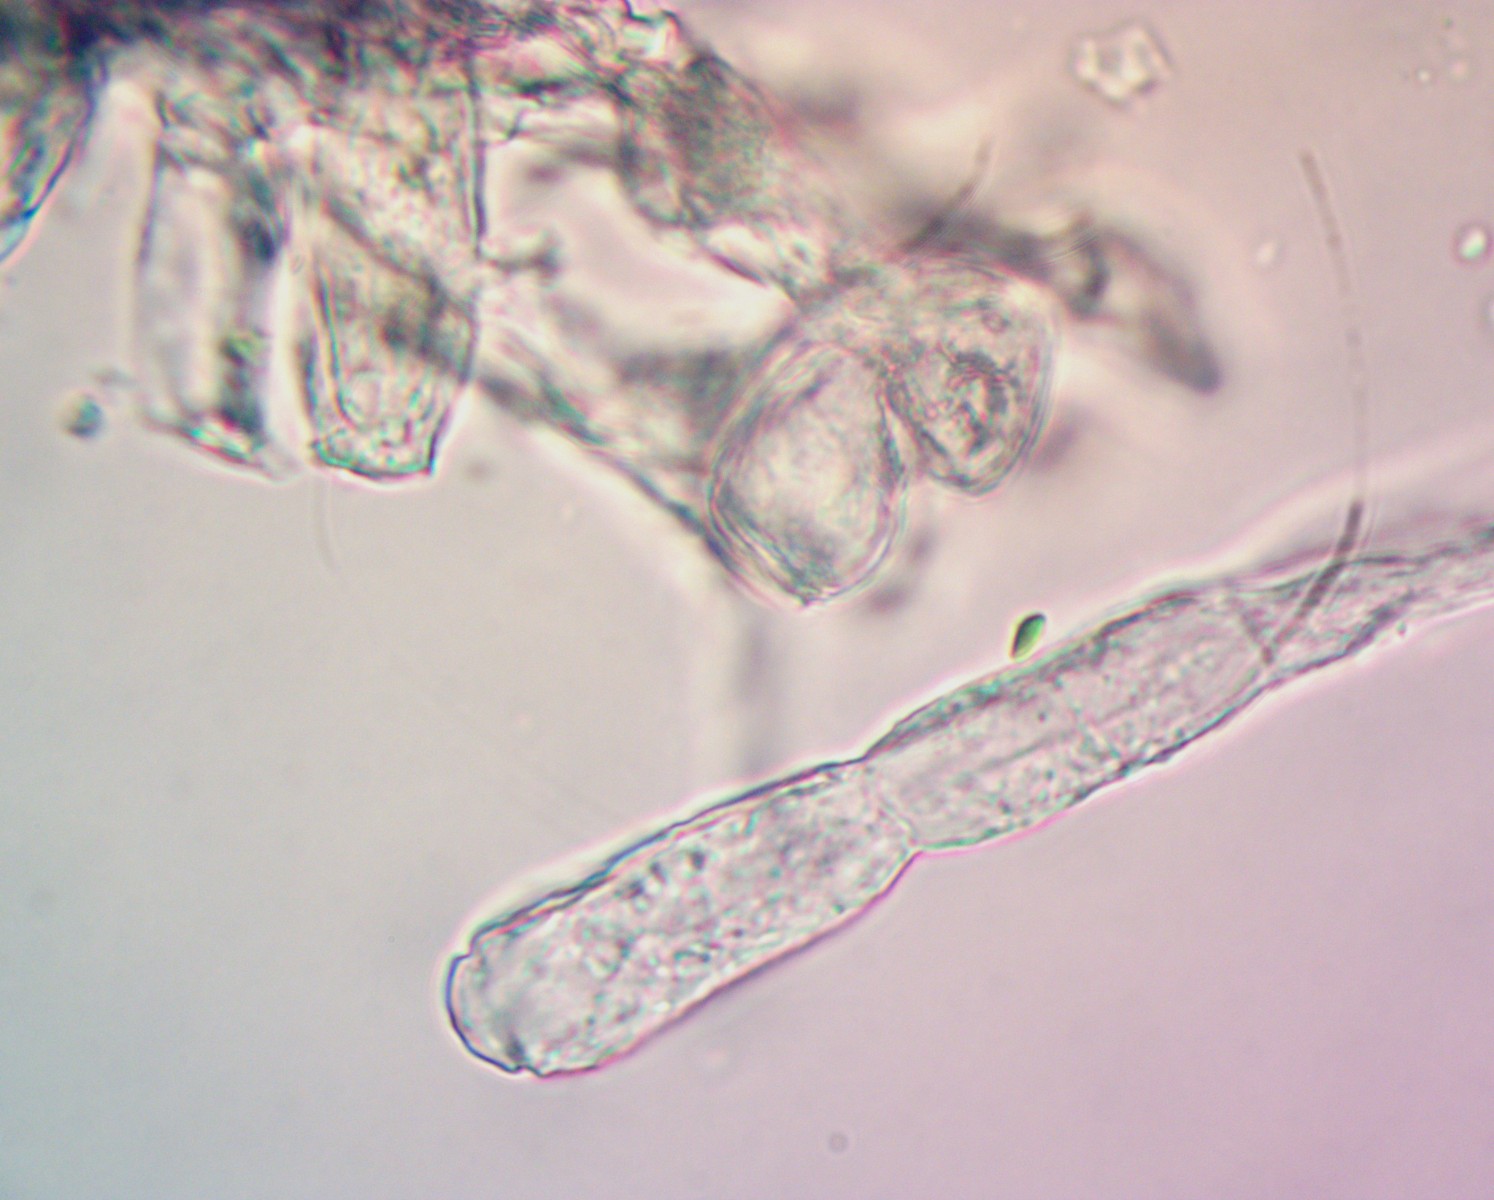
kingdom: Fungi
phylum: Ascomycota
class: Leotiomycetes
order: Helotiales
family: Erysiphaceae
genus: Sawadaea
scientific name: Sawadaea bicornis
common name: Maple mildew
